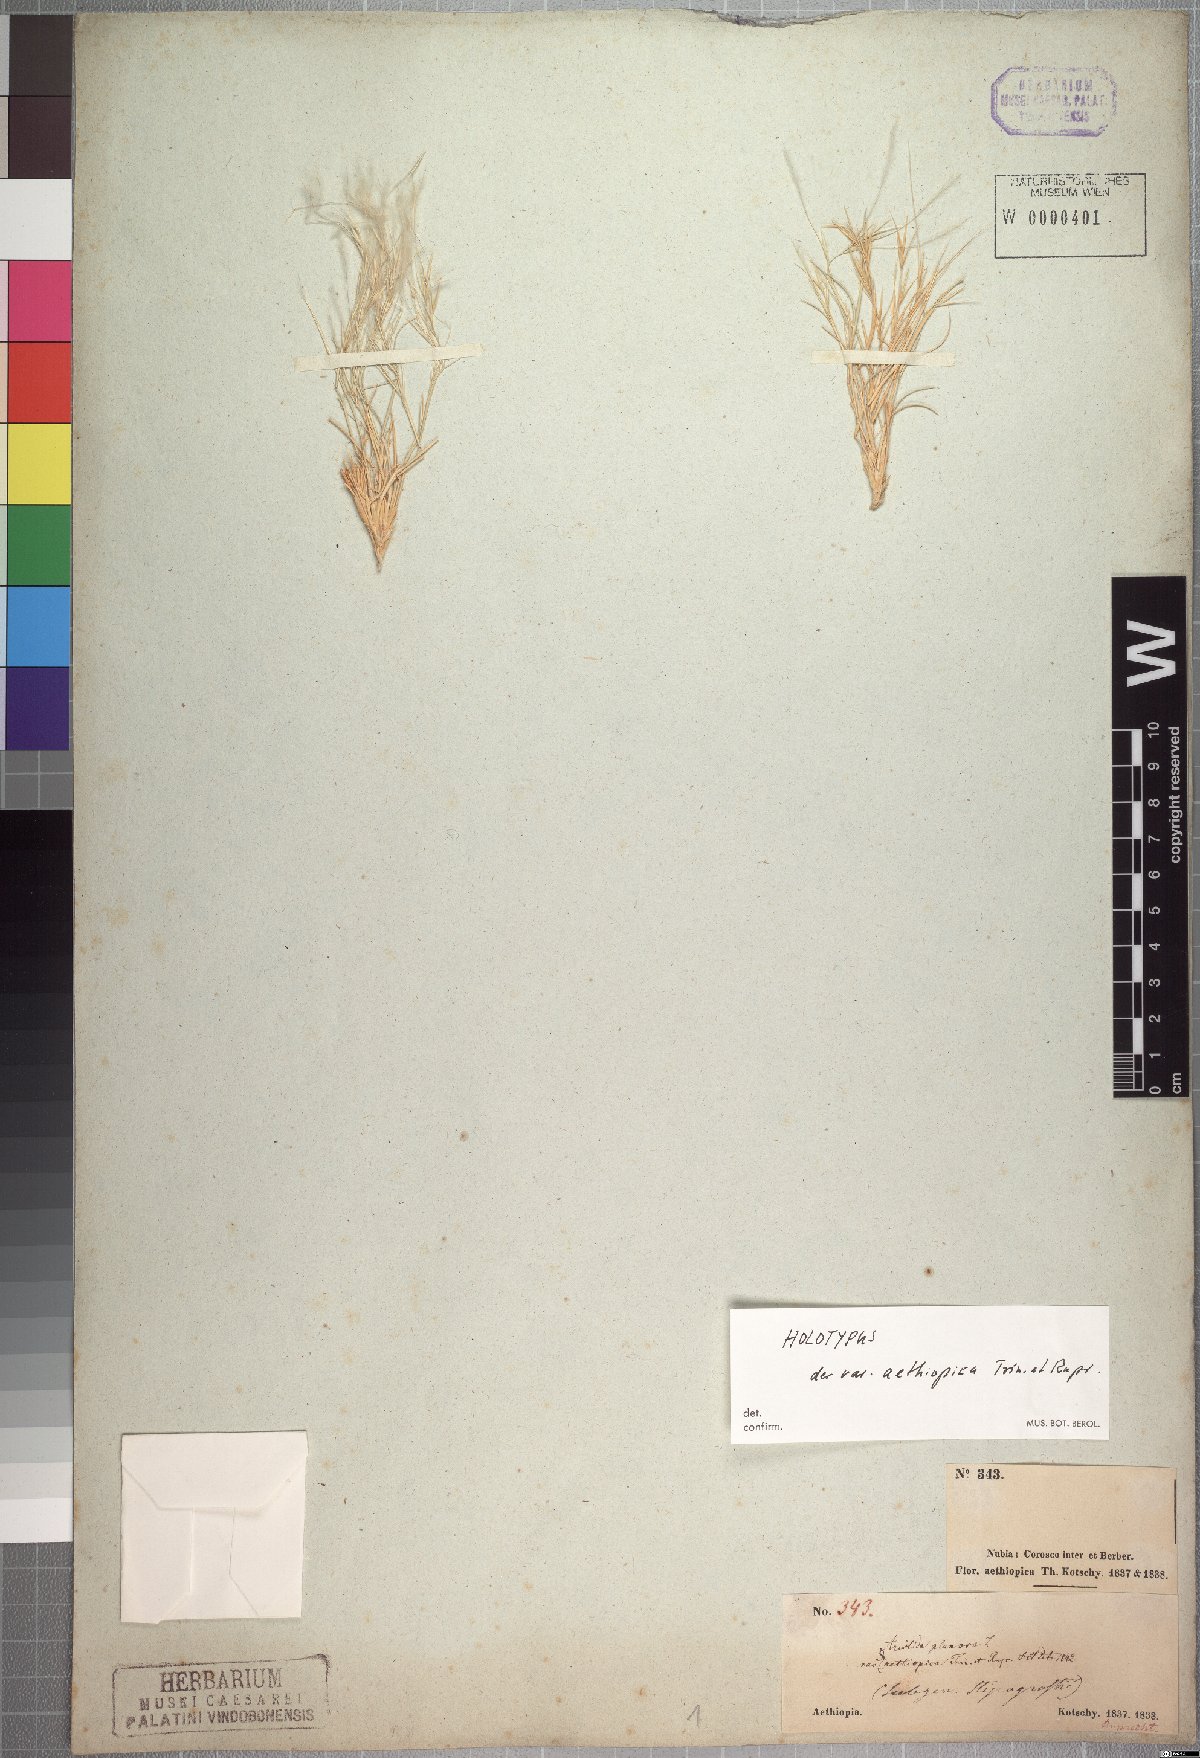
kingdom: Plantae
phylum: Tracheophyta
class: Liliopsida
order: Poales
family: Poaceae
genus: Stipagrostis
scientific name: Stipagrostis plumosa
